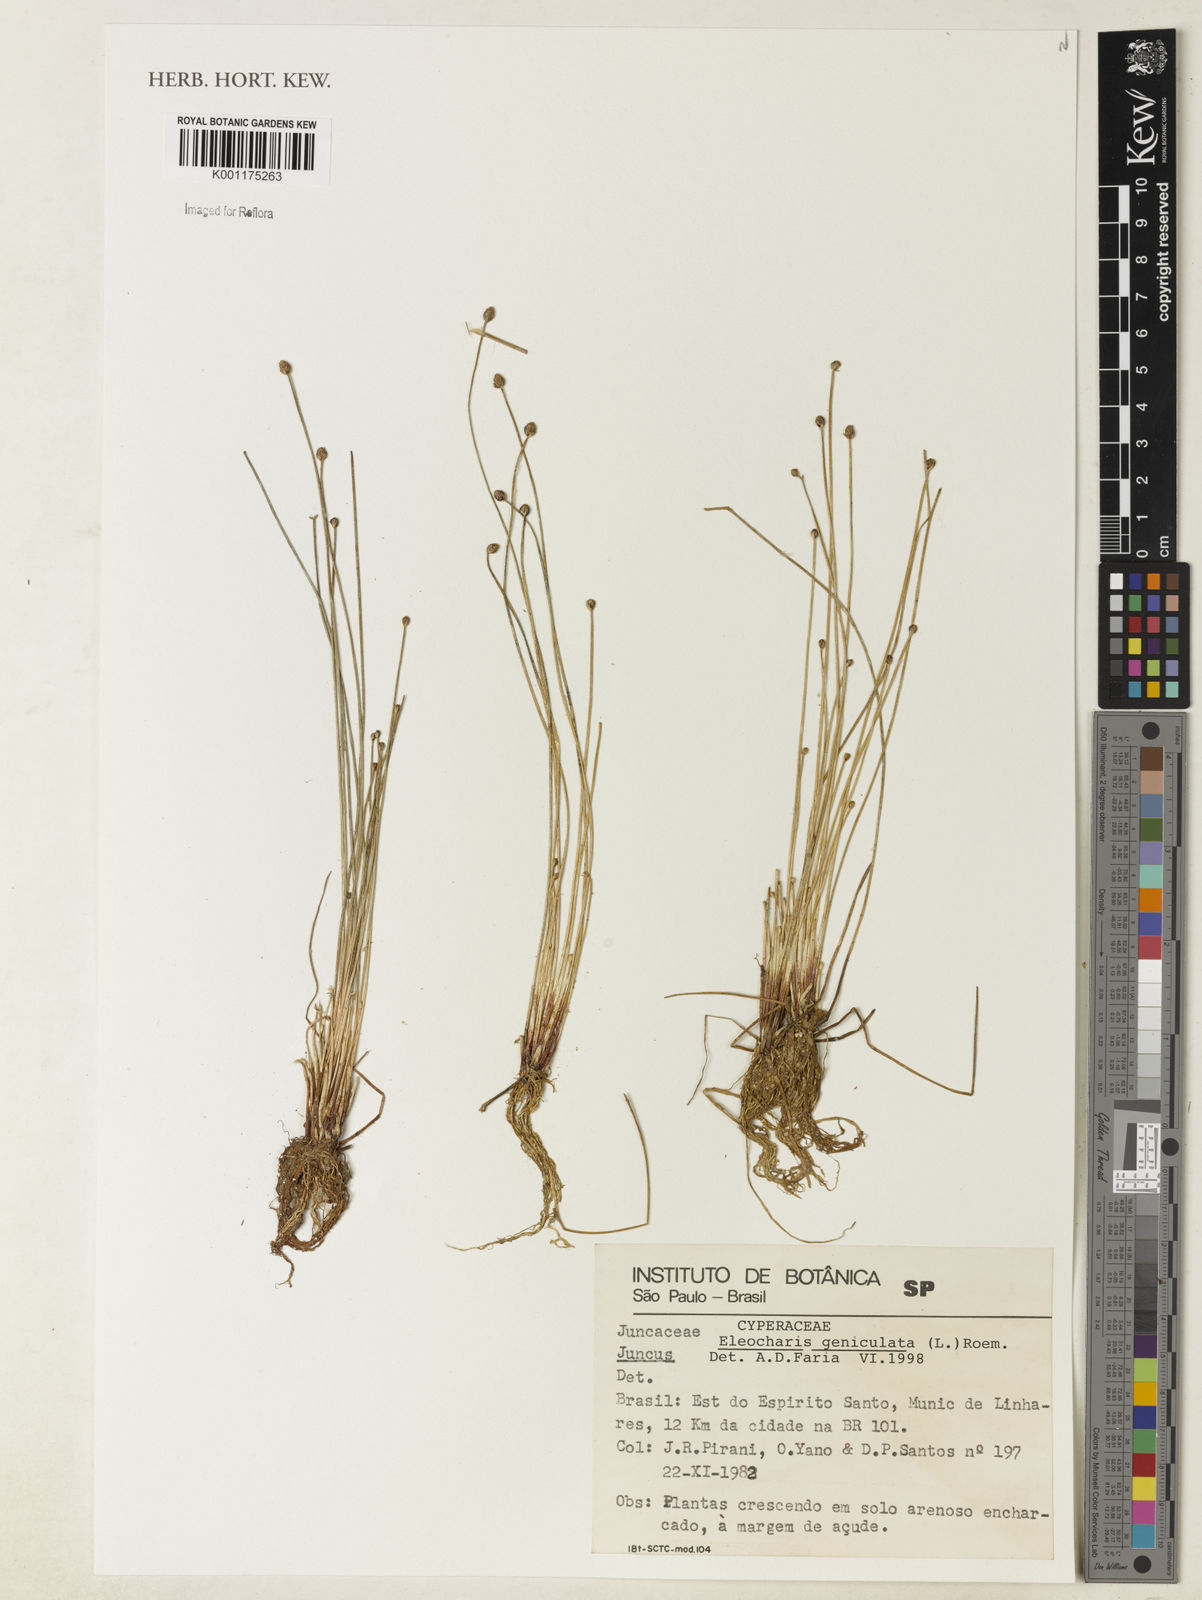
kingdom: Plantae
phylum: Tracheophyta
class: Liliopsida
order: Poales
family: Cyperaceae
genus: Eleocharis
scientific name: Eleocharis geniculata
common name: Canada spikesedge
